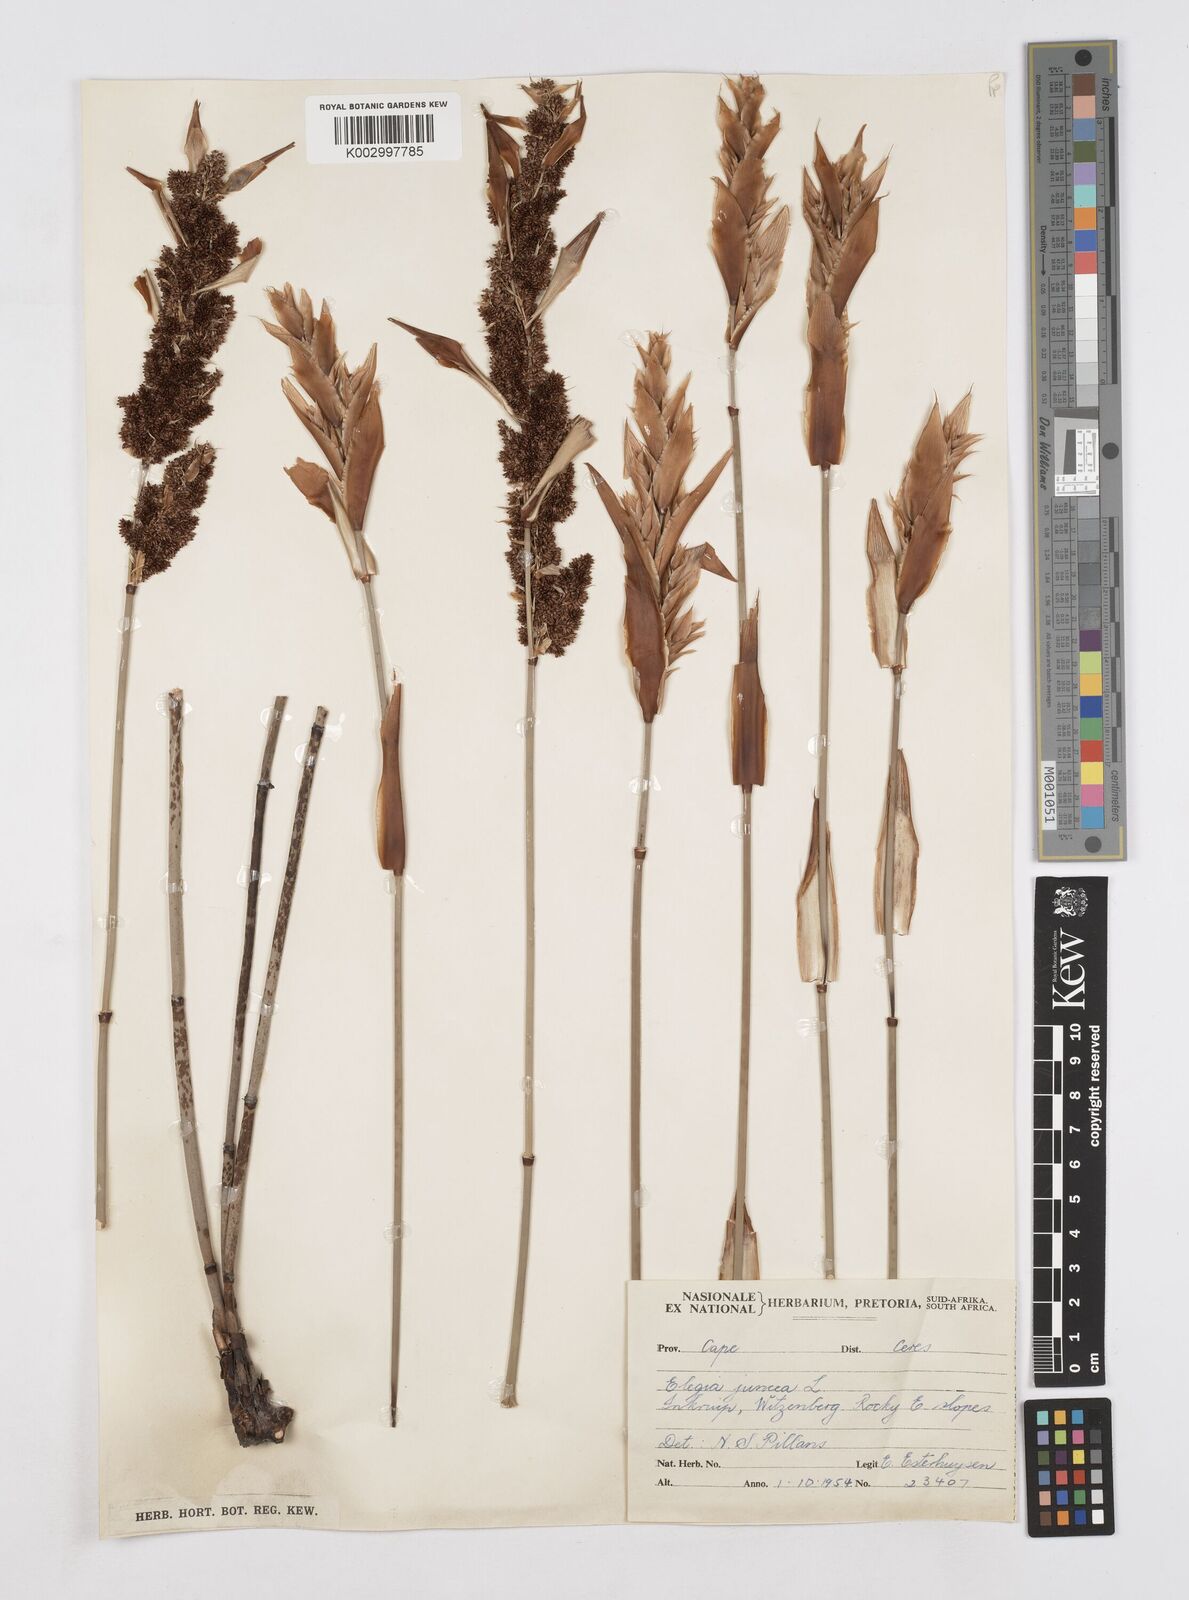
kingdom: Plantae
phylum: Tracheophyta
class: Liliopsida
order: Poales
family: Restionaceae
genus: Elegia
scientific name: Elegia juncea
